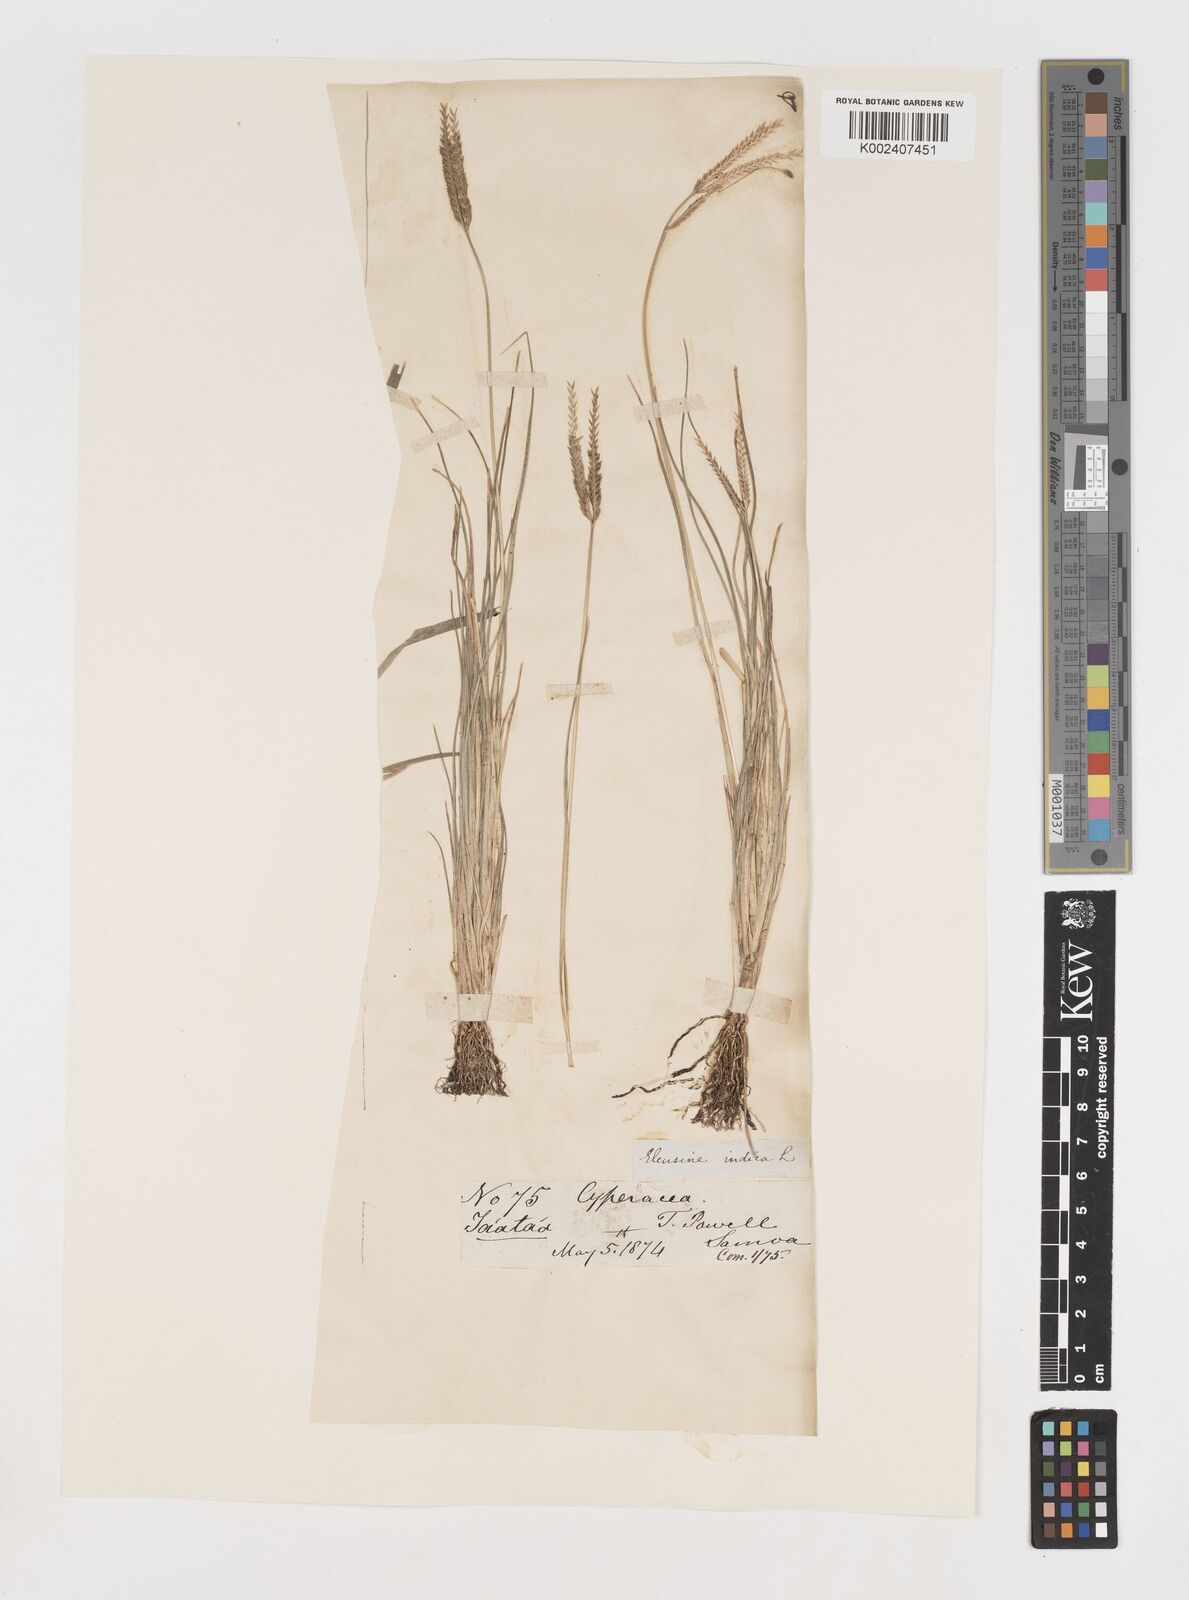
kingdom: Plantae
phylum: Tracheophyta
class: Liliopsida
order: Poales
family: Poaceae
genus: Eleusine
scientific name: Eleusine indica
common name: Yard-grass
